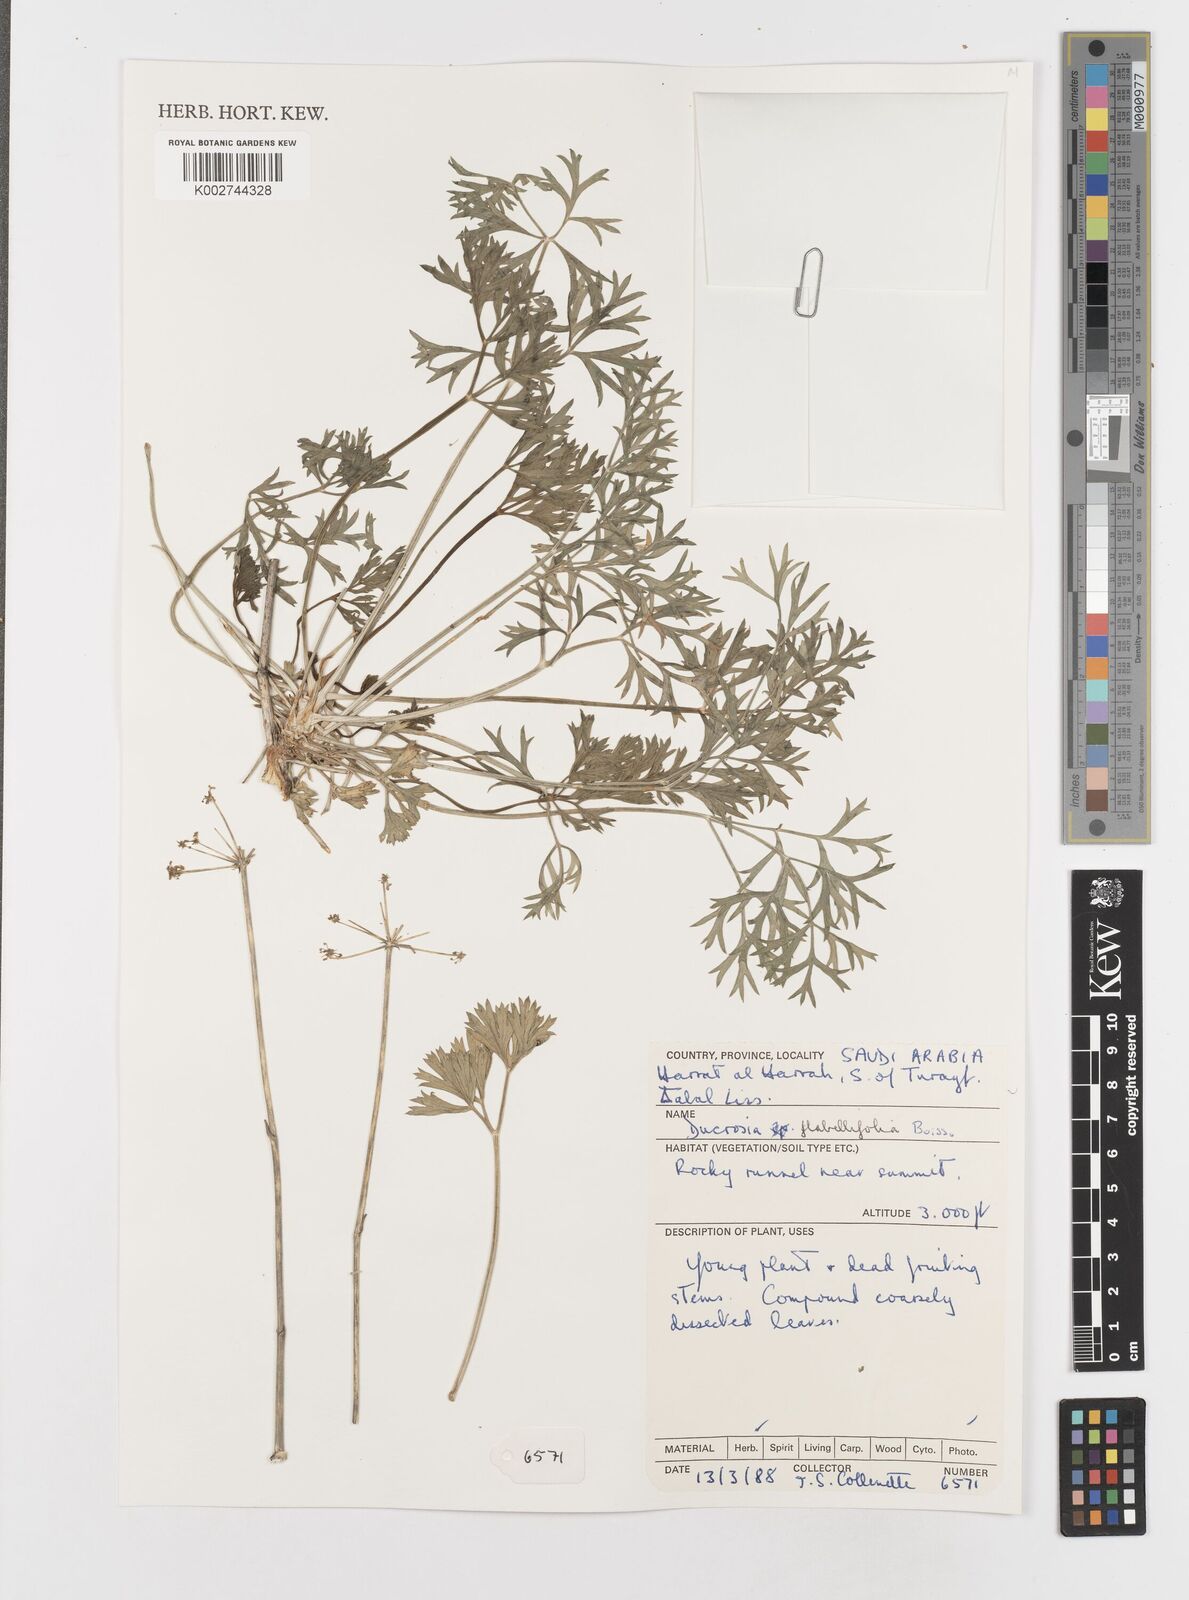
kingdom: Plantae
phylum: Tracheophyta
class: Magnoliopsida
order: Apiales
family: Apiaceae
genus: Ducrosia
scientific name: Ducrosia flabellifolia
